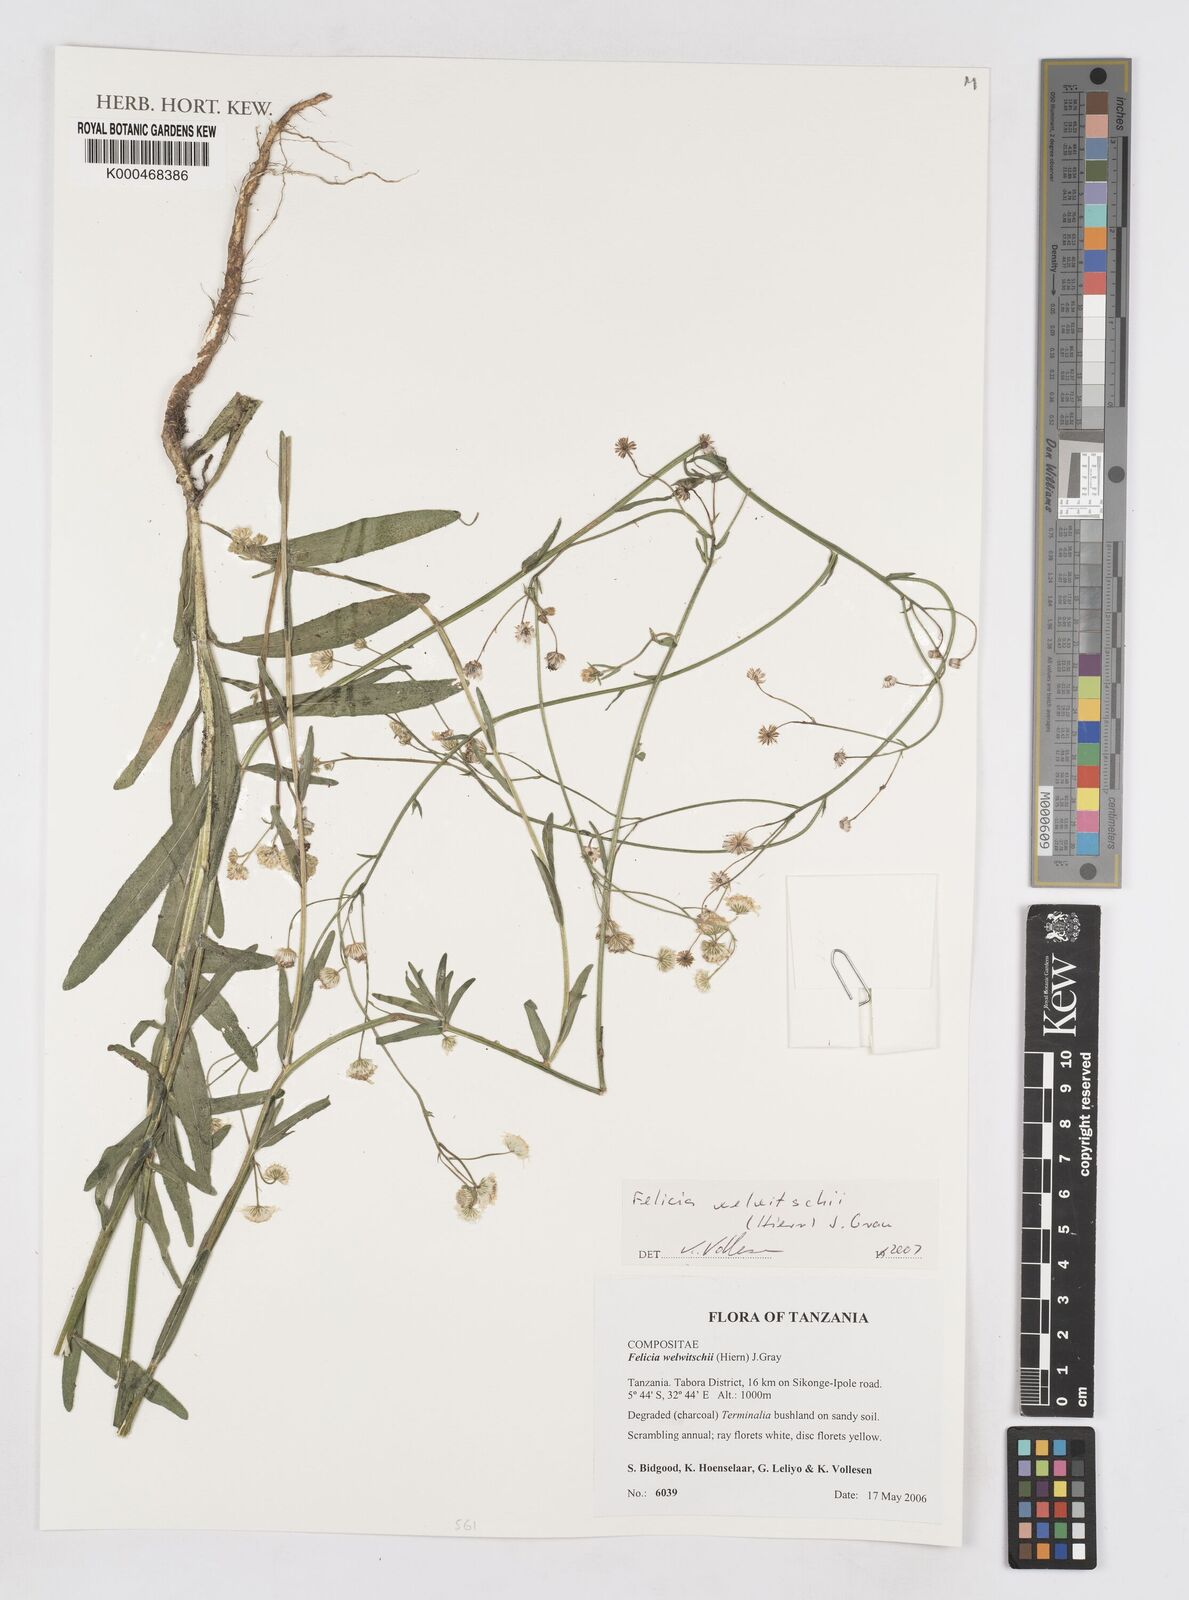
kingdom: Plantae
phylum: Tracheophyta
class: Magnoliopsida
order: Asterales
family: Asteraceae
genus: Felicia
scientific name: Felicia welwitschii
